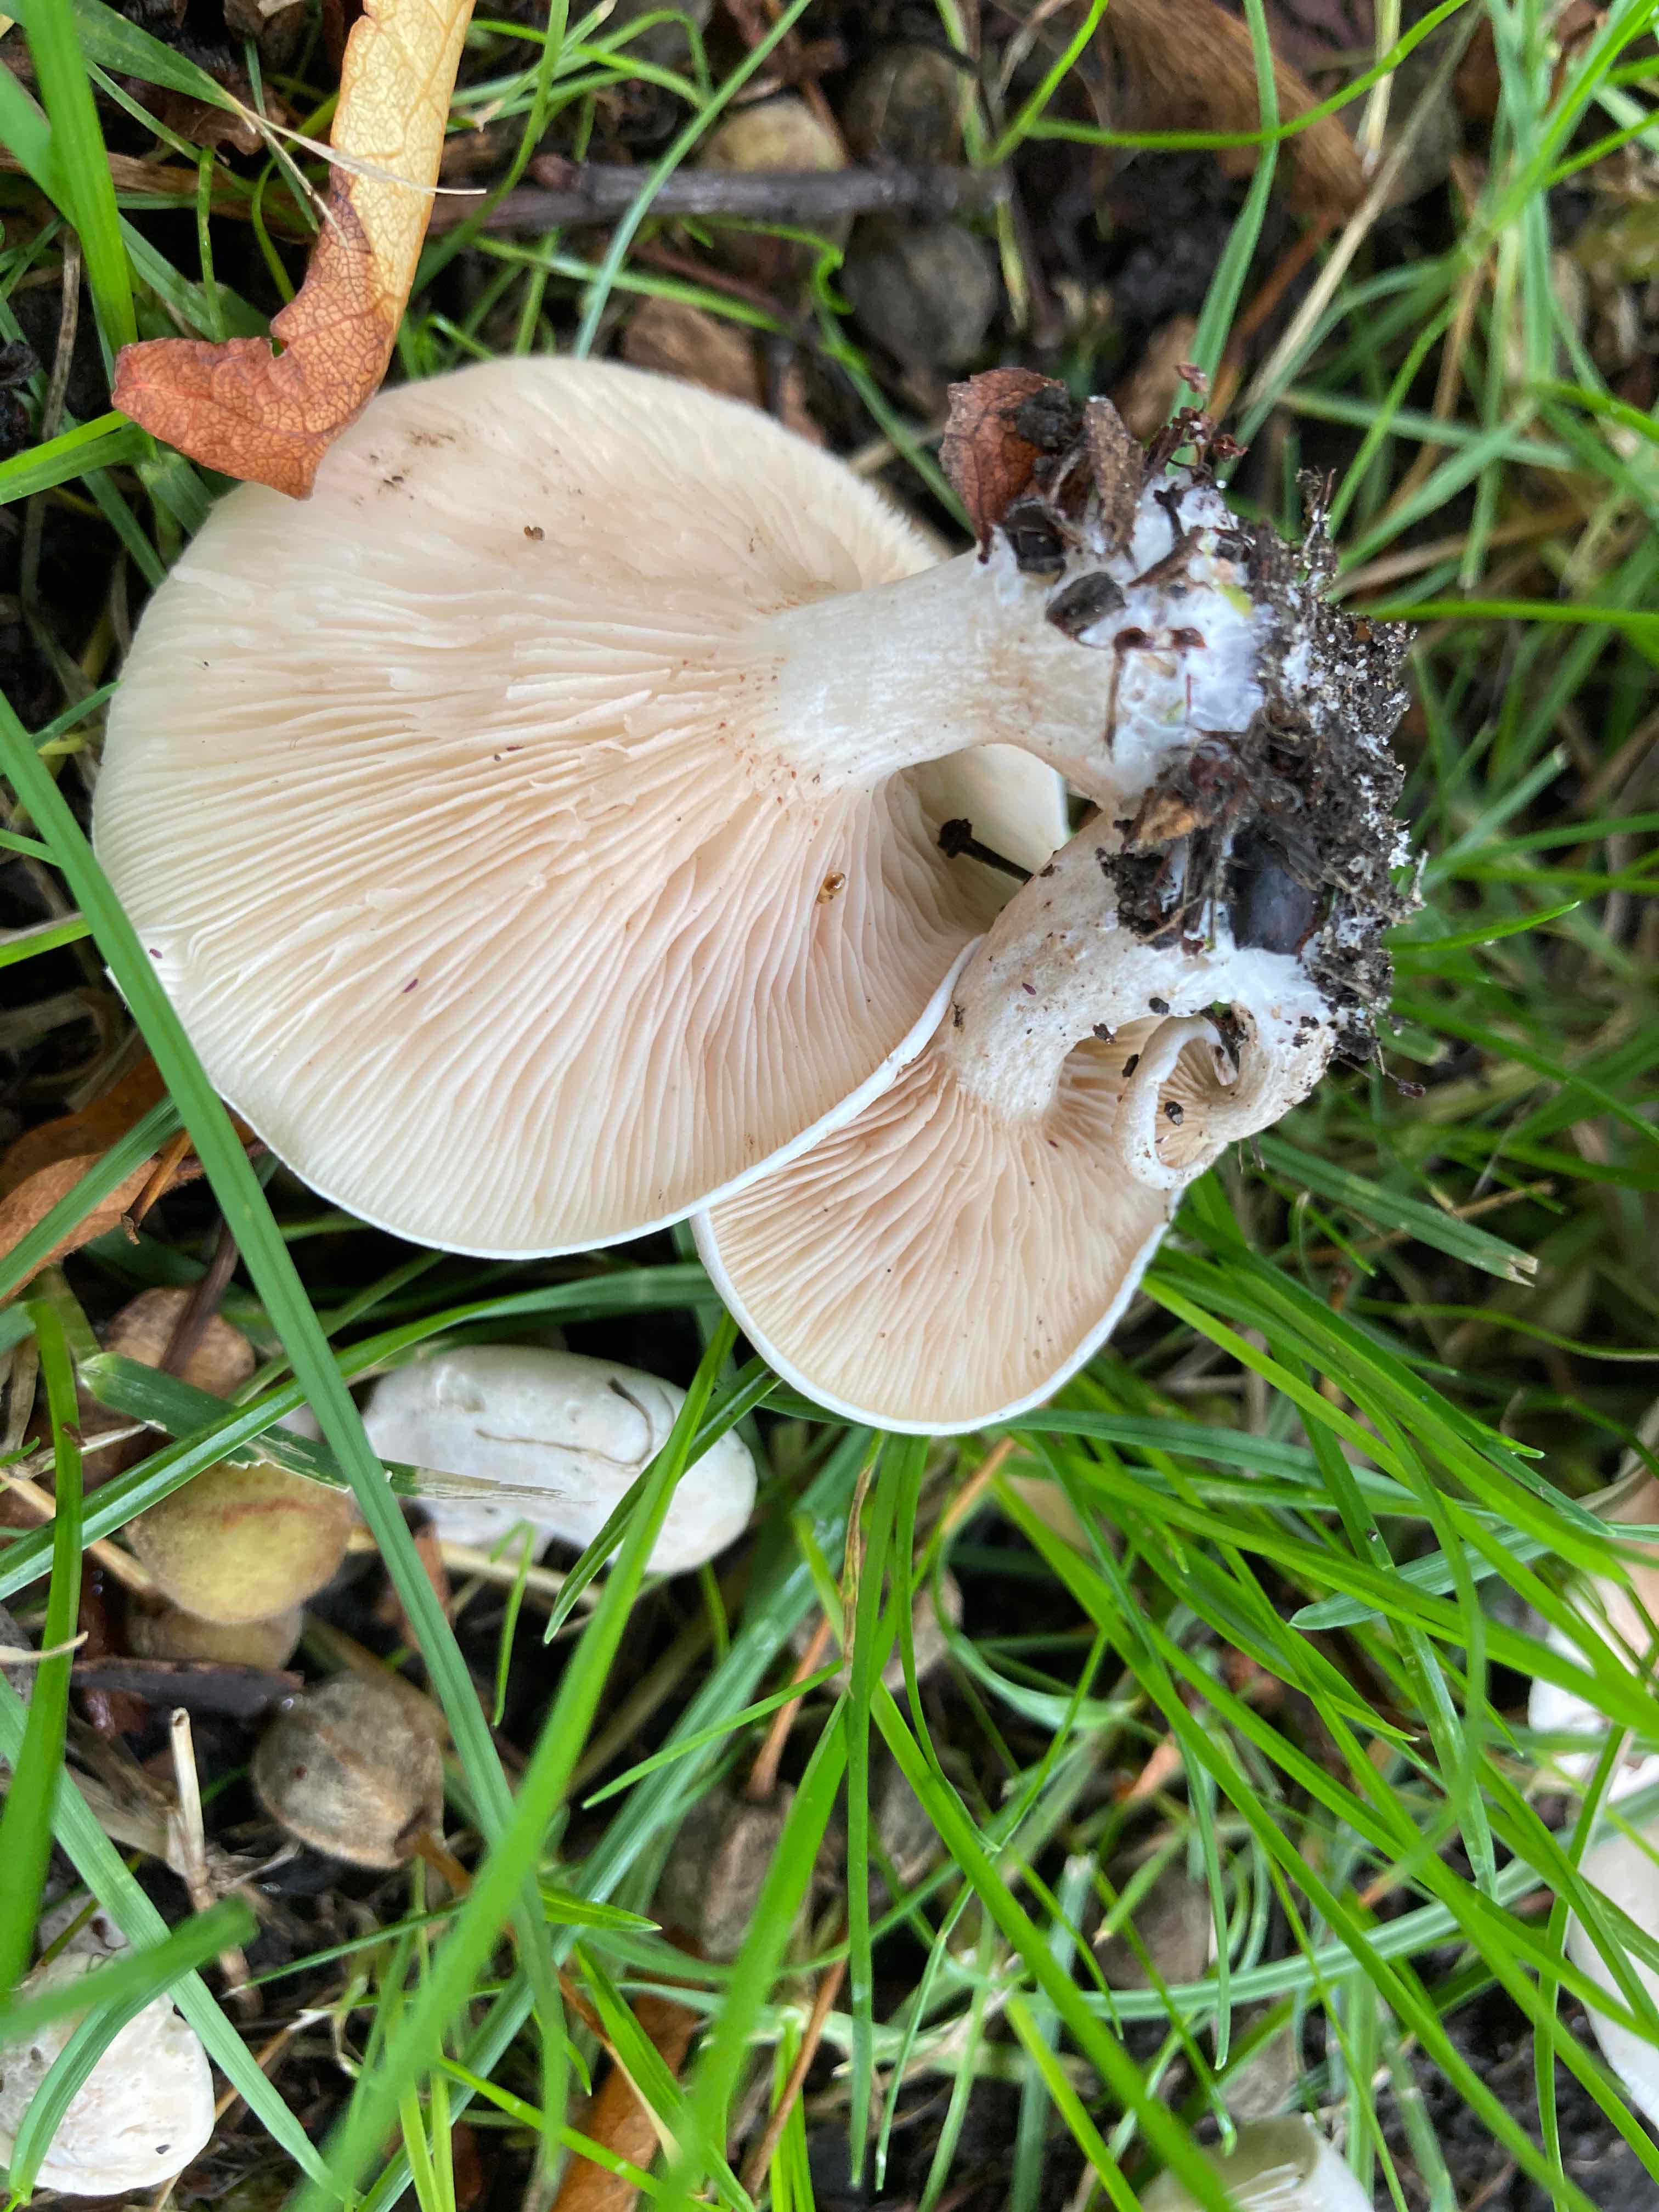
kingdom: Fungi
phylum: Basidiomycota
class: Agaricomycetes
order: Agaricales
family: Entolomataceae
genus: Clitopilus
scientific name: Clitopilus prunulus
